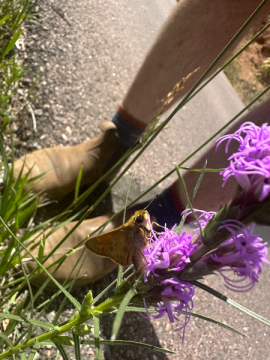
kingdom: Animalia
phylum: Arthropoda
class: Insecta
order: Lepidoptera
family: Hesperiidae
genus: Atalopedes
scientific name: Atalopedes campestris
